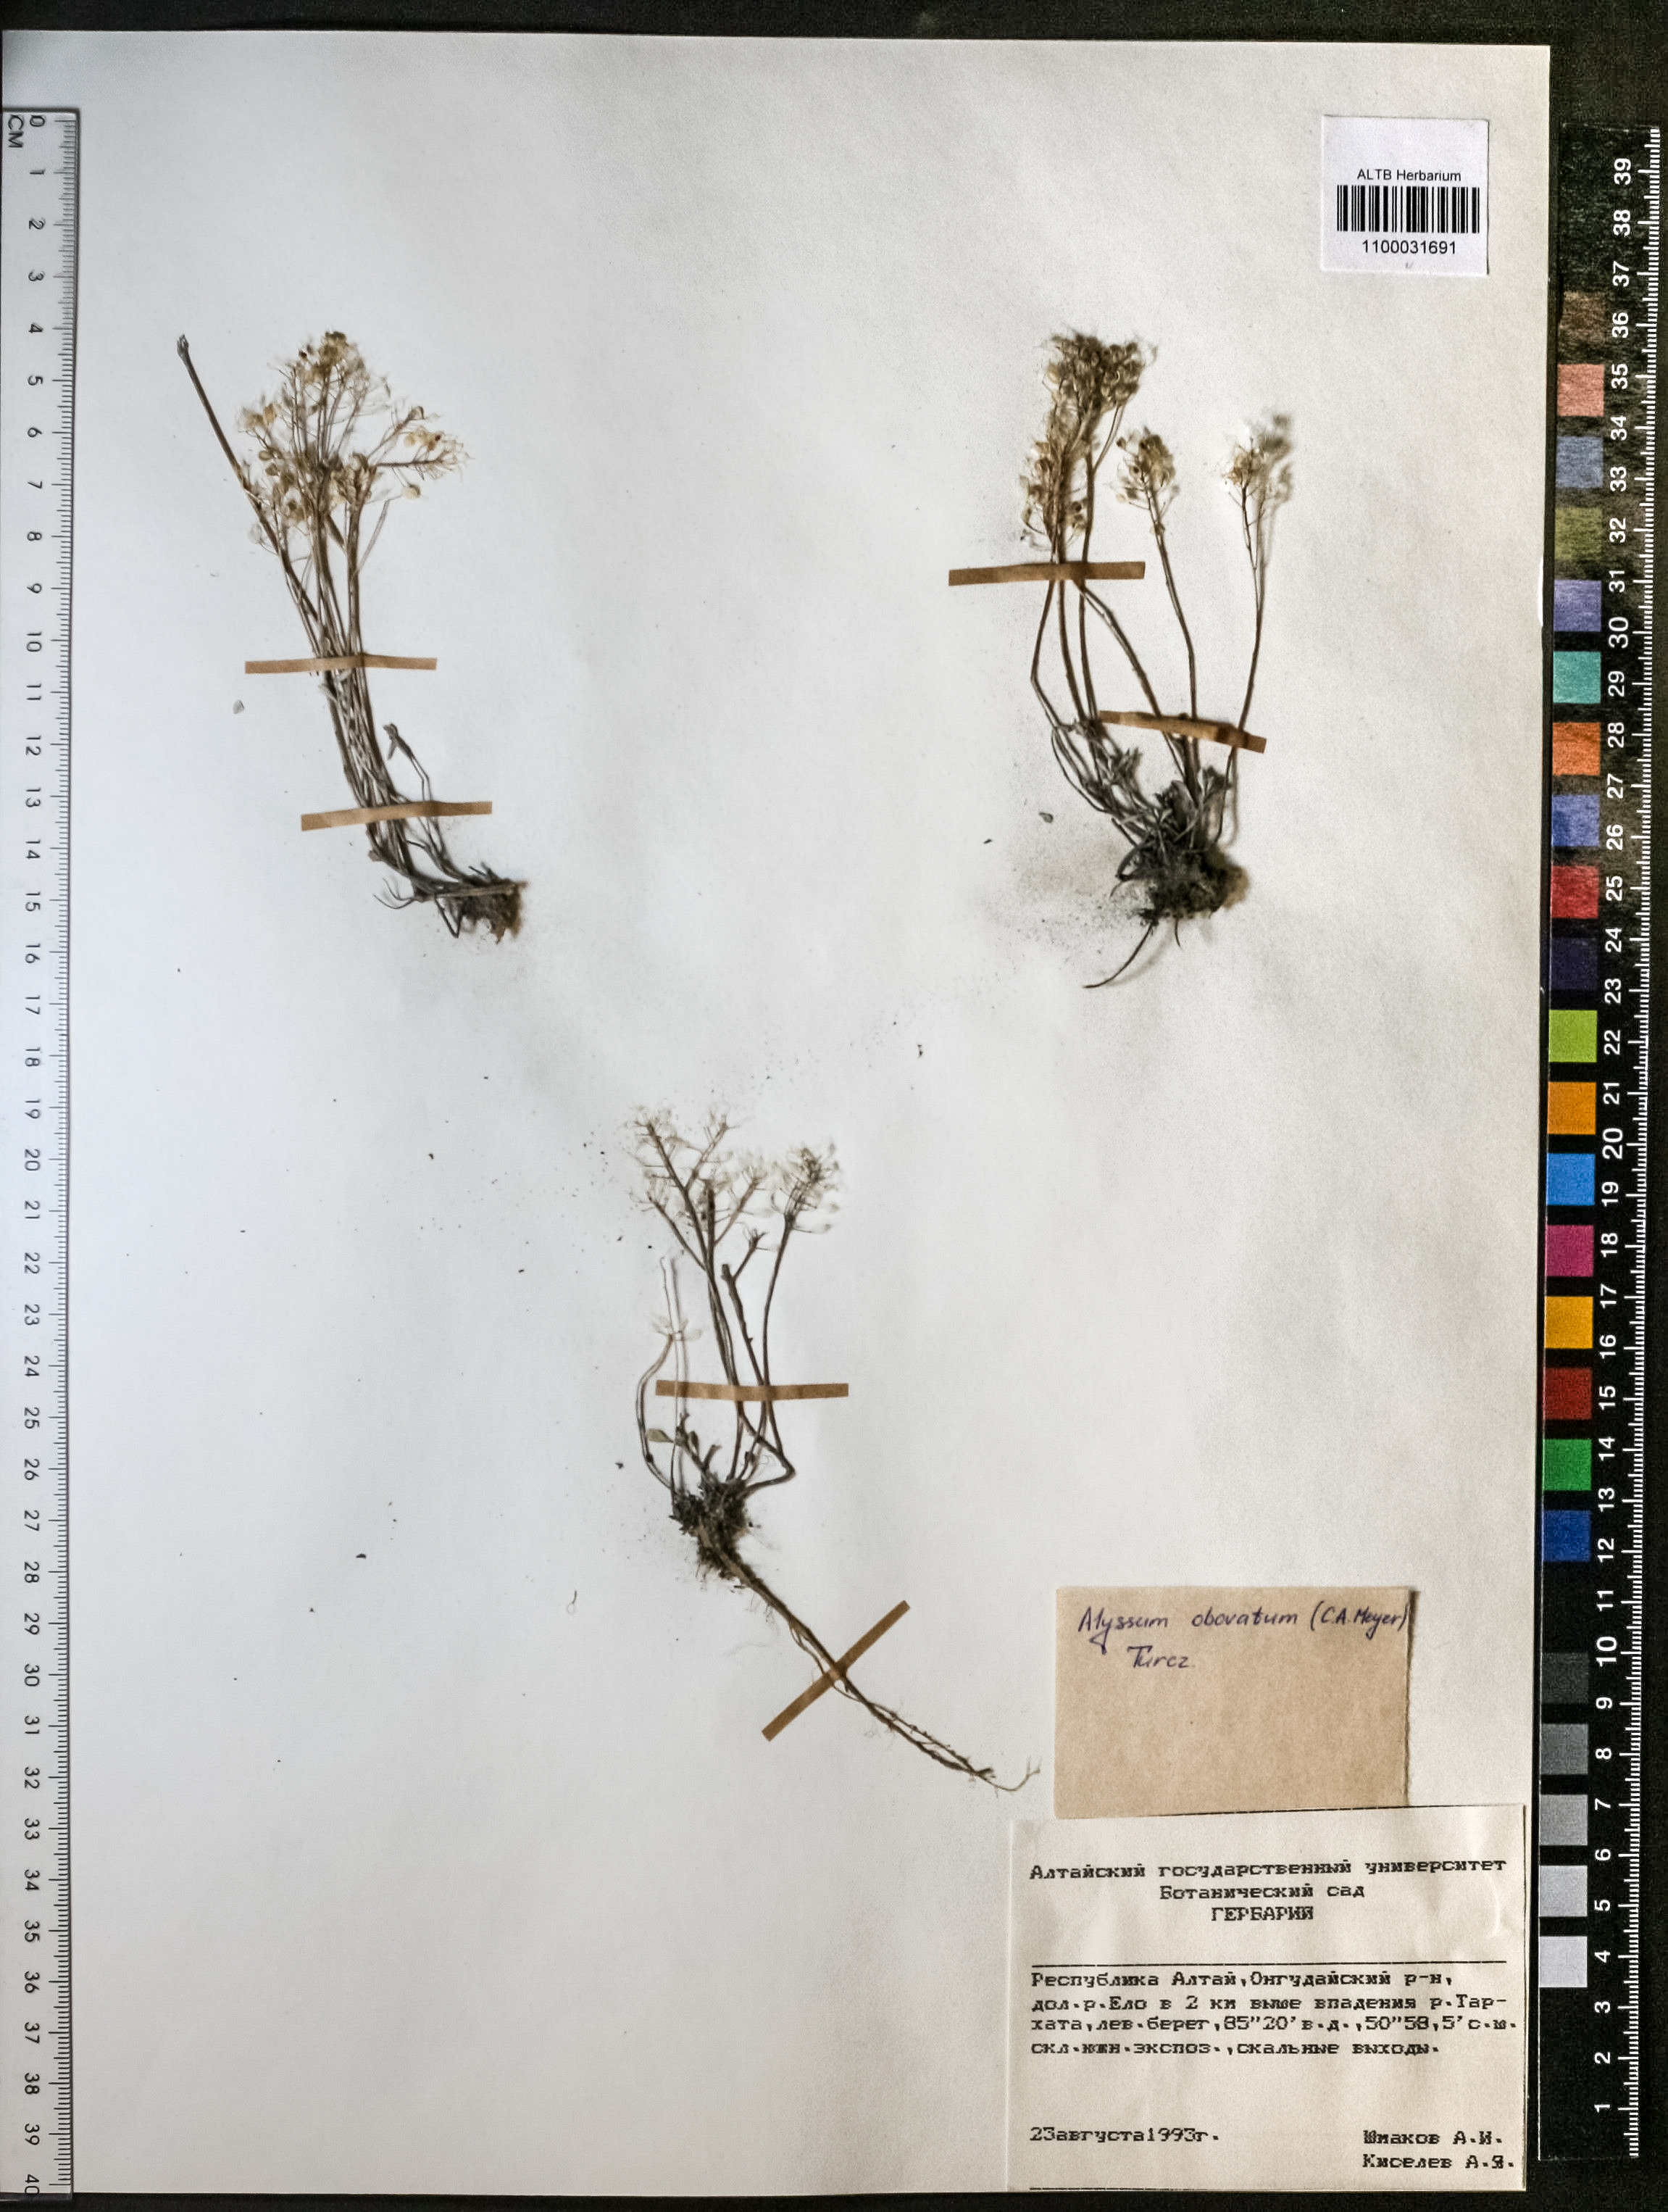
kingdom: Plantae
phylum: Tracheophyta
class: Magnoliopsida
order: Brassicales
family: Brassicaceae
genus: Odontarrhena
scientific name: Odontarrhena obovata
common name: American alyssum
